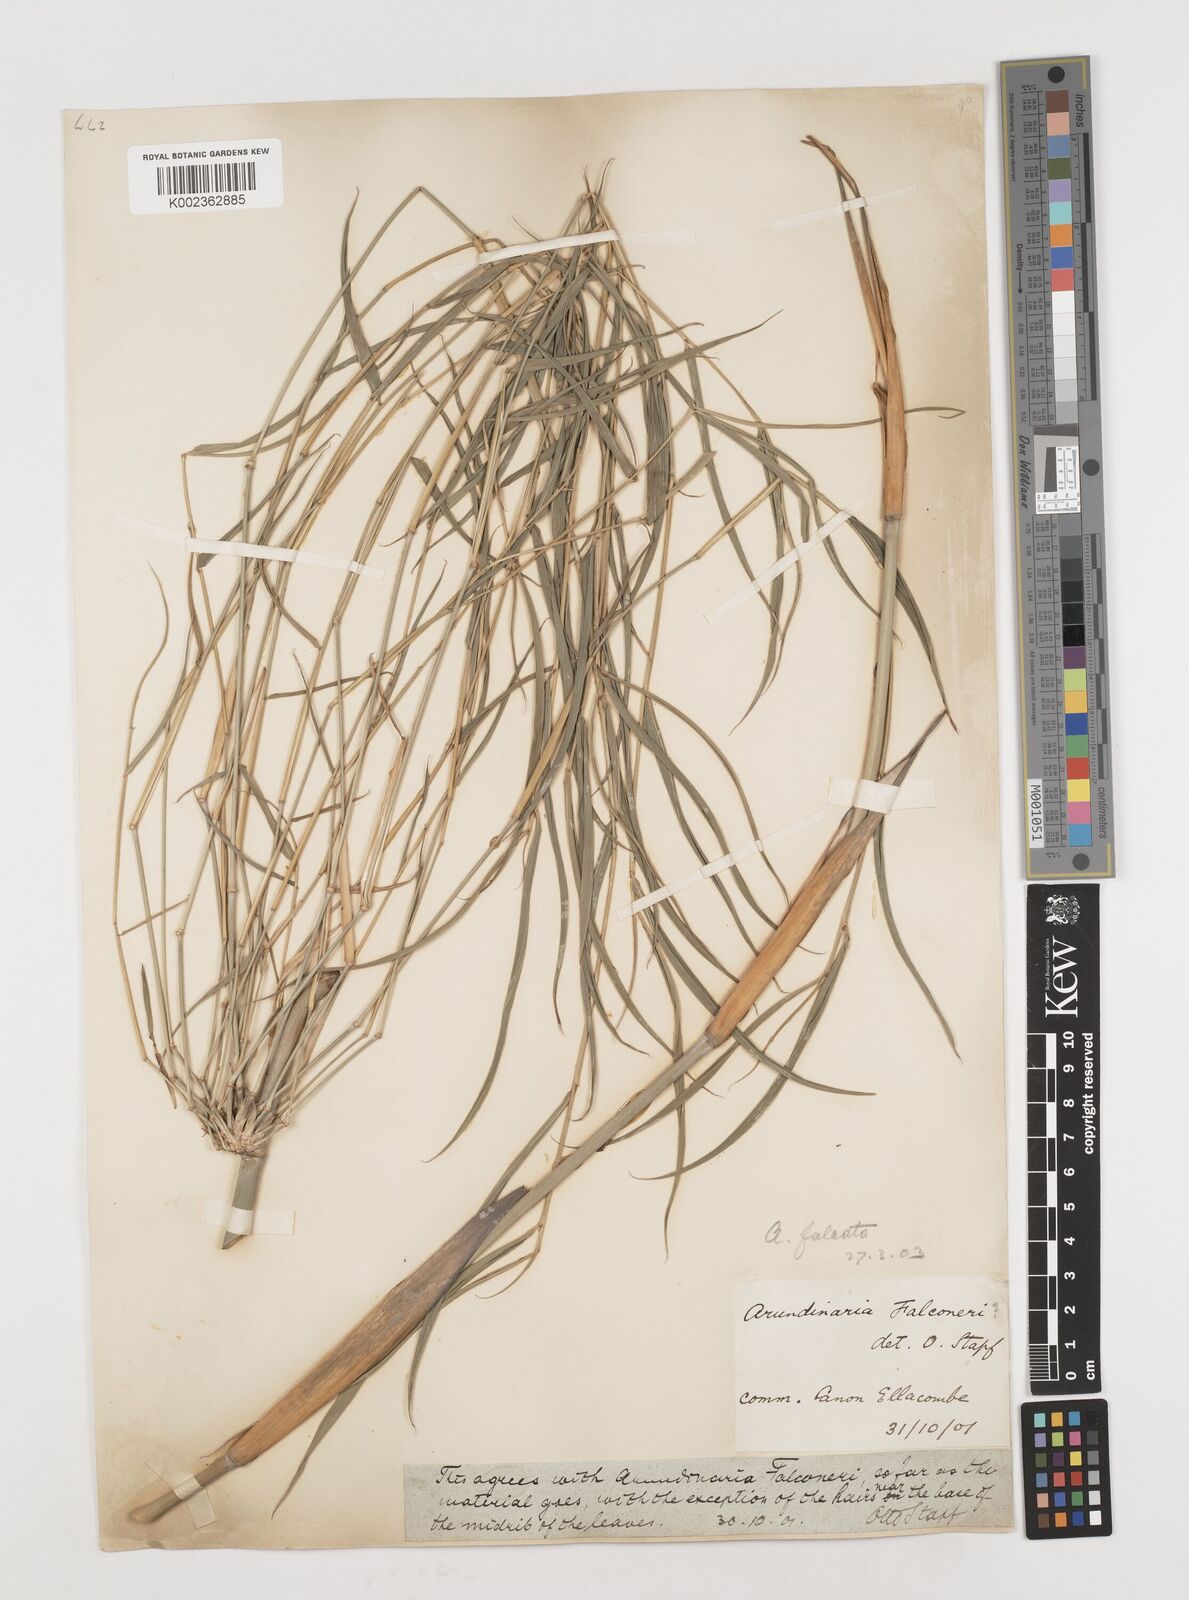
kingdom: Plantae
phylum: Tracheophyta
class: Liliopsida
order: Poales
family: Poaceae
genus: Drepanostachyum
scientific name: Drepanostachyum falcatum
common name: Himalayan bamboo
